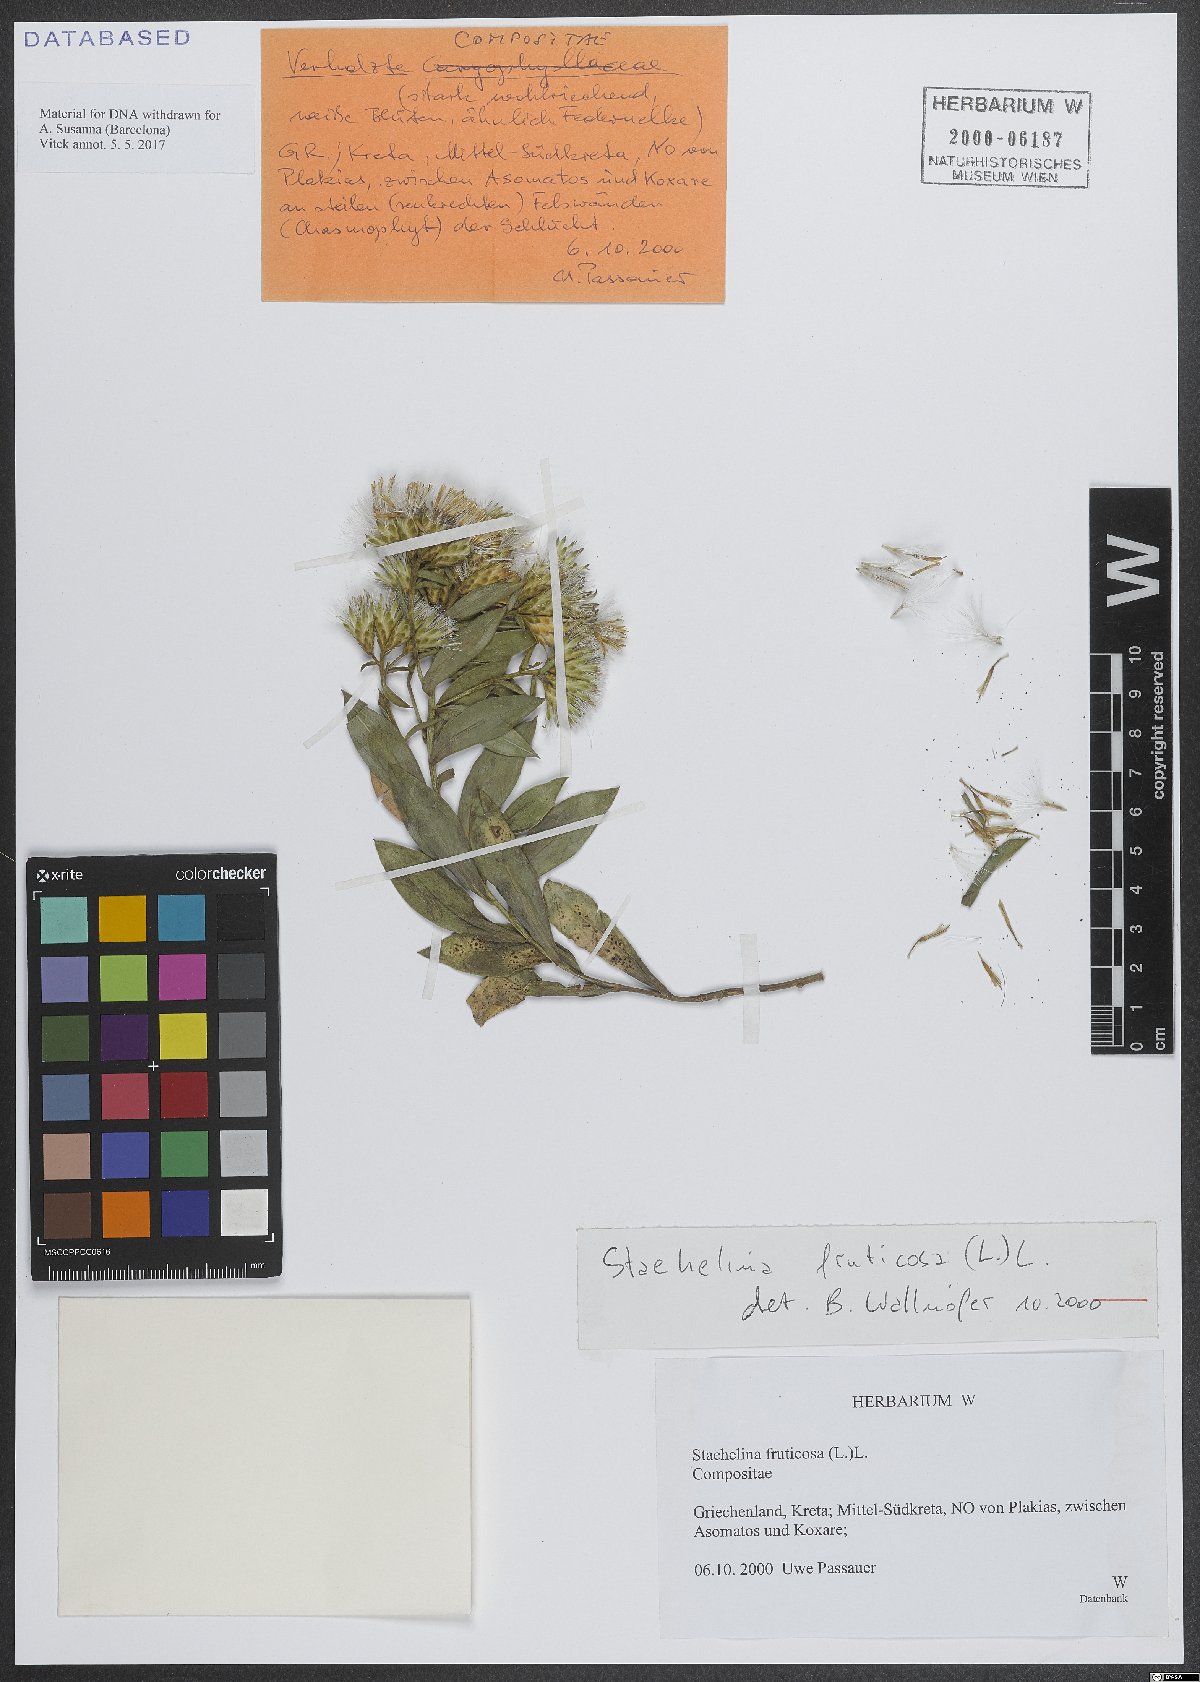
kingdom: Plantae
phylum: Tracheophyta
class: Magnoliopsida
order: Asterales
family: Asteraceae
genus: Hirtellina
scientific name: Hirtellina fruticosa
